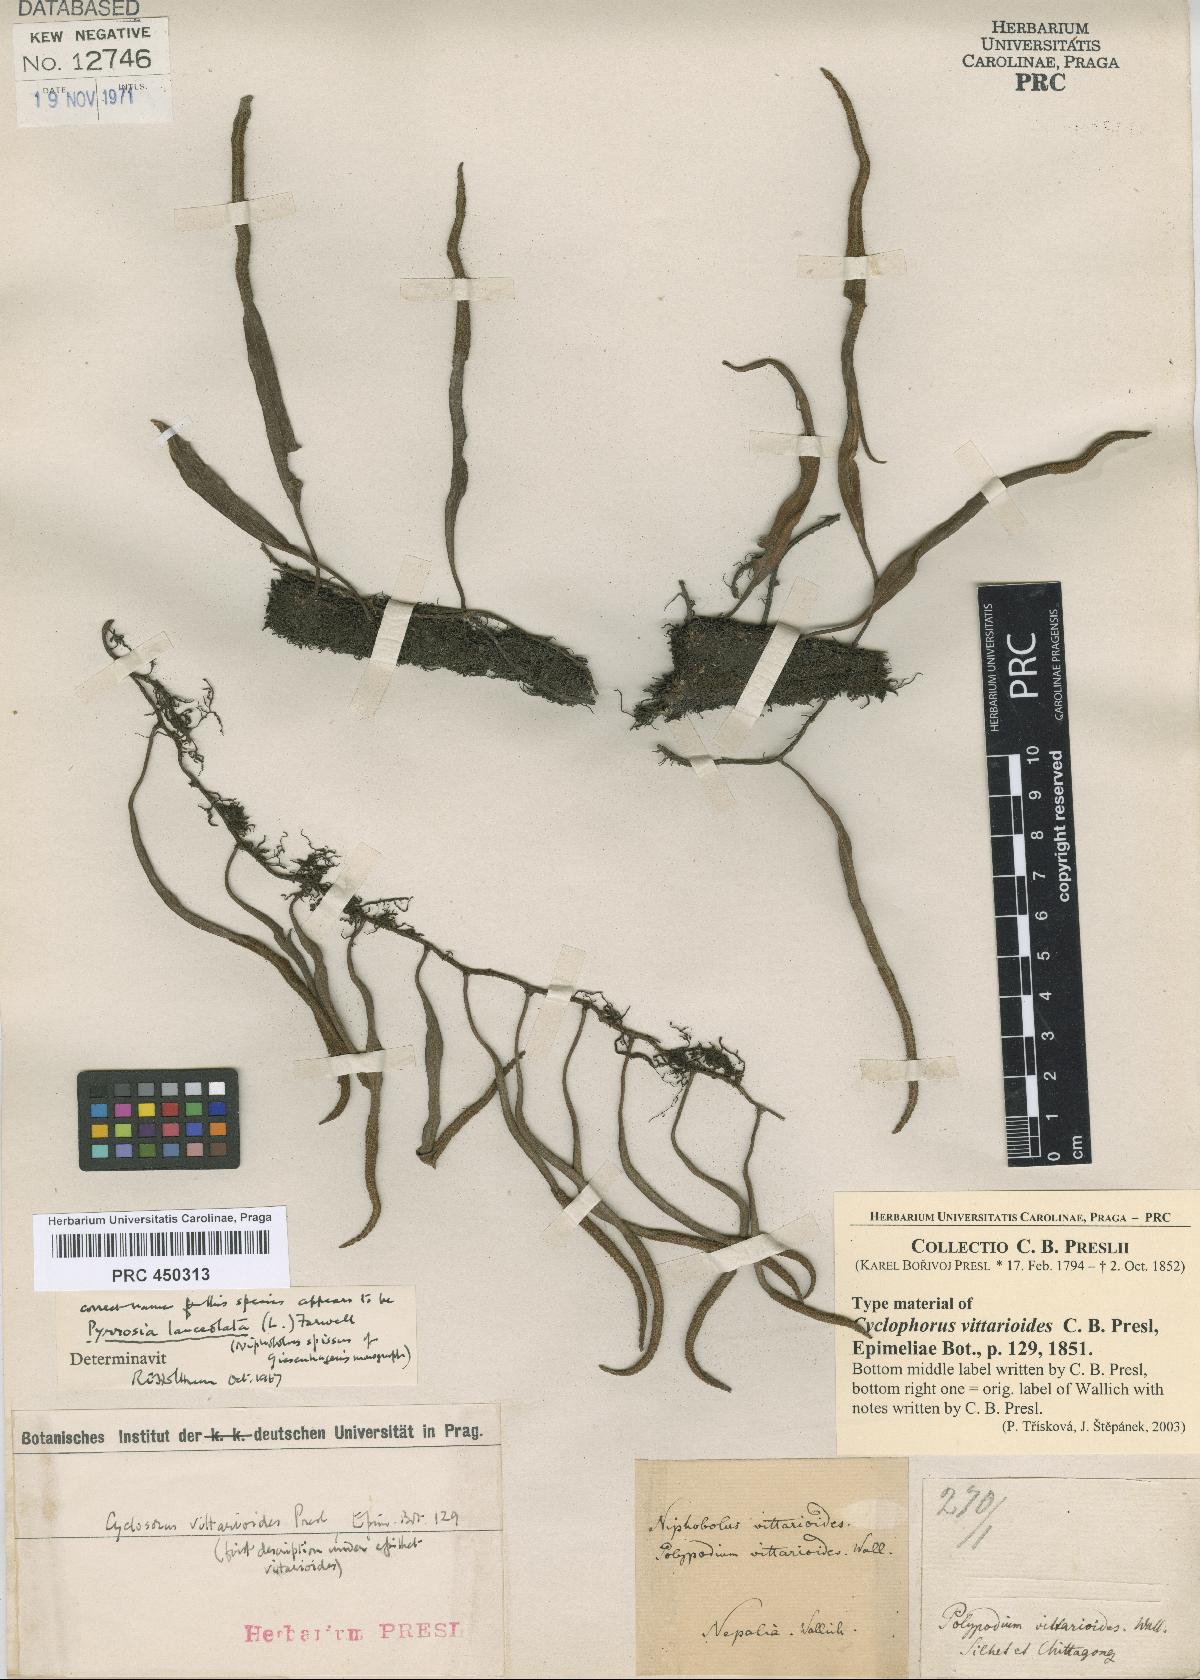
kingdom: Plantae
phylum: Tracheophyta
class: Polypodiopsida
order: Polypodiales
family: Polypodiaceae
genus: Pyrrosia
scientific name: Pyrrosia lanceolata
